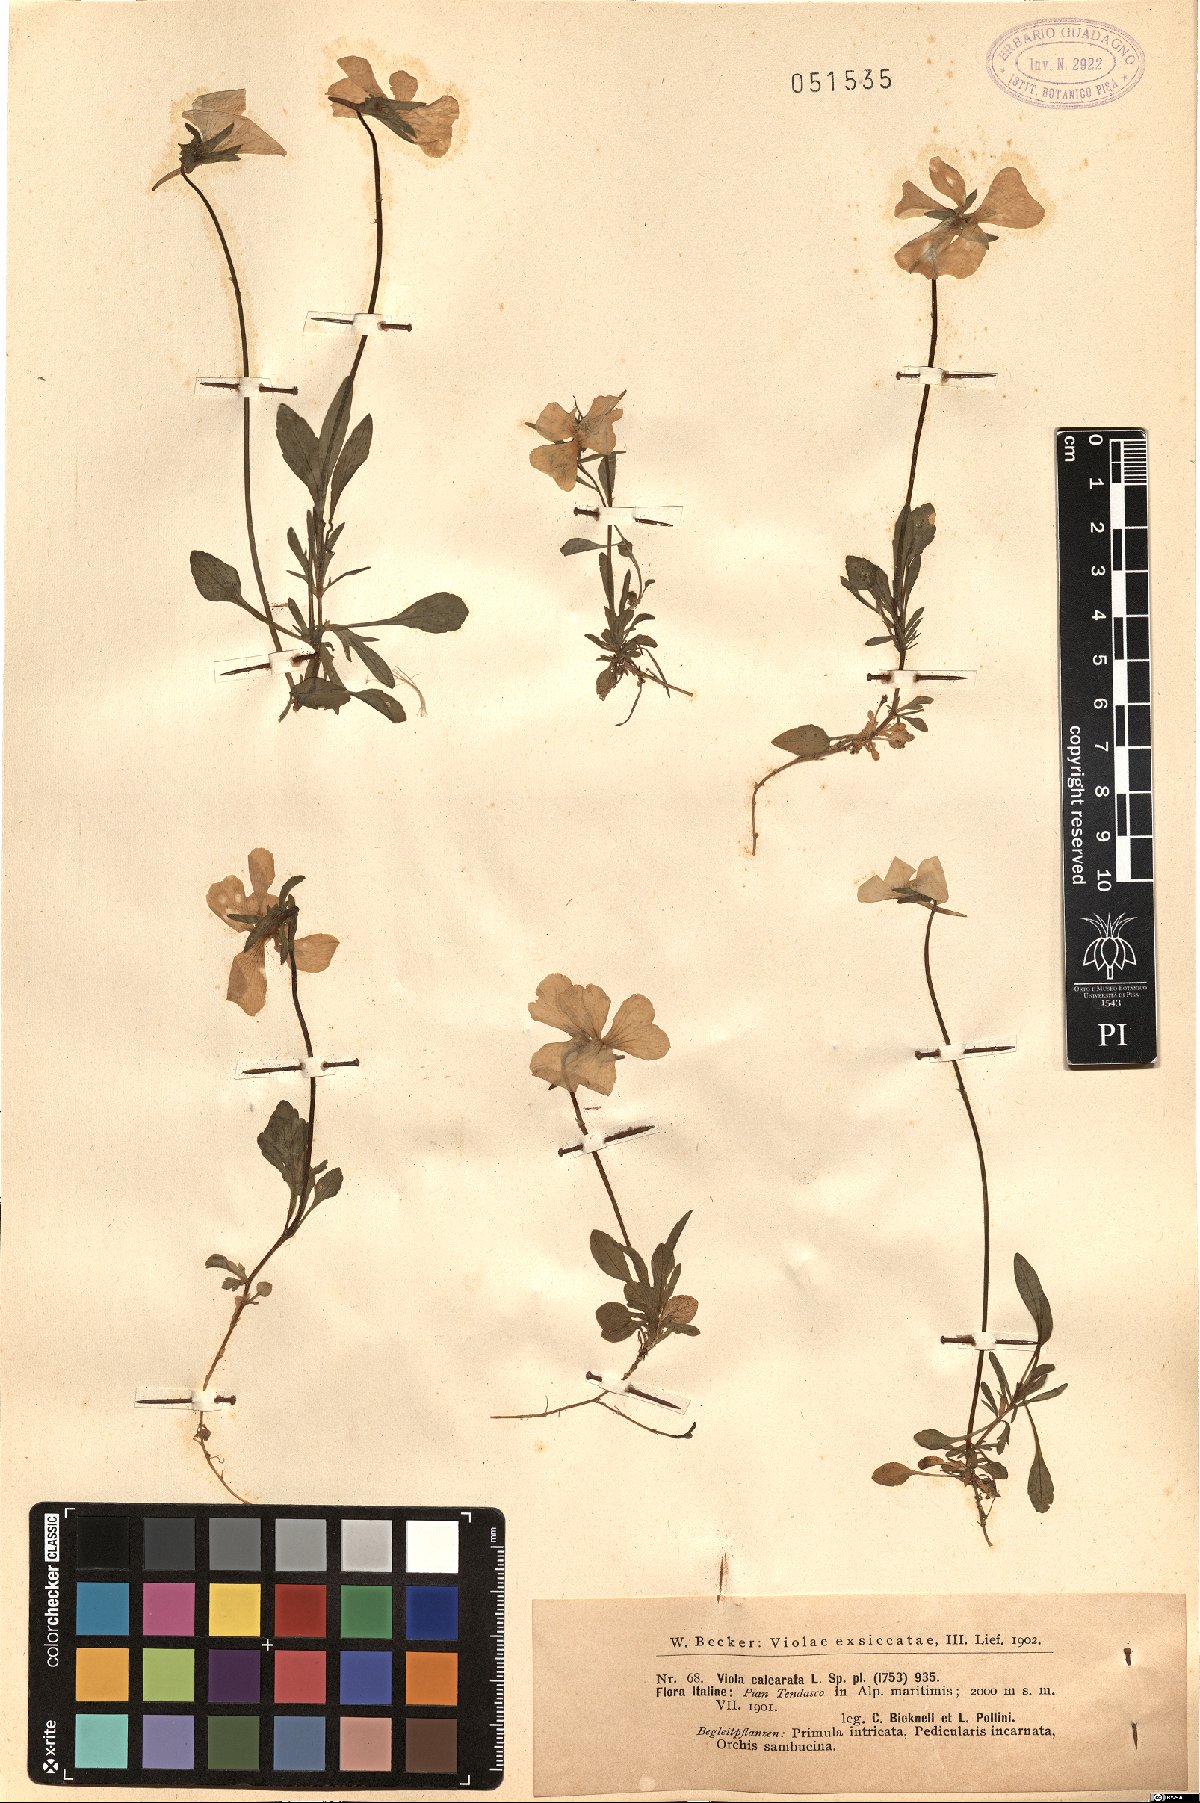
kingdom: Plantae
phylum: Tracheophyta
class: Magnoliopsida
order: Malpighiales
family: Violaceae
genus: Viola
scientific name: Viola calcarata
